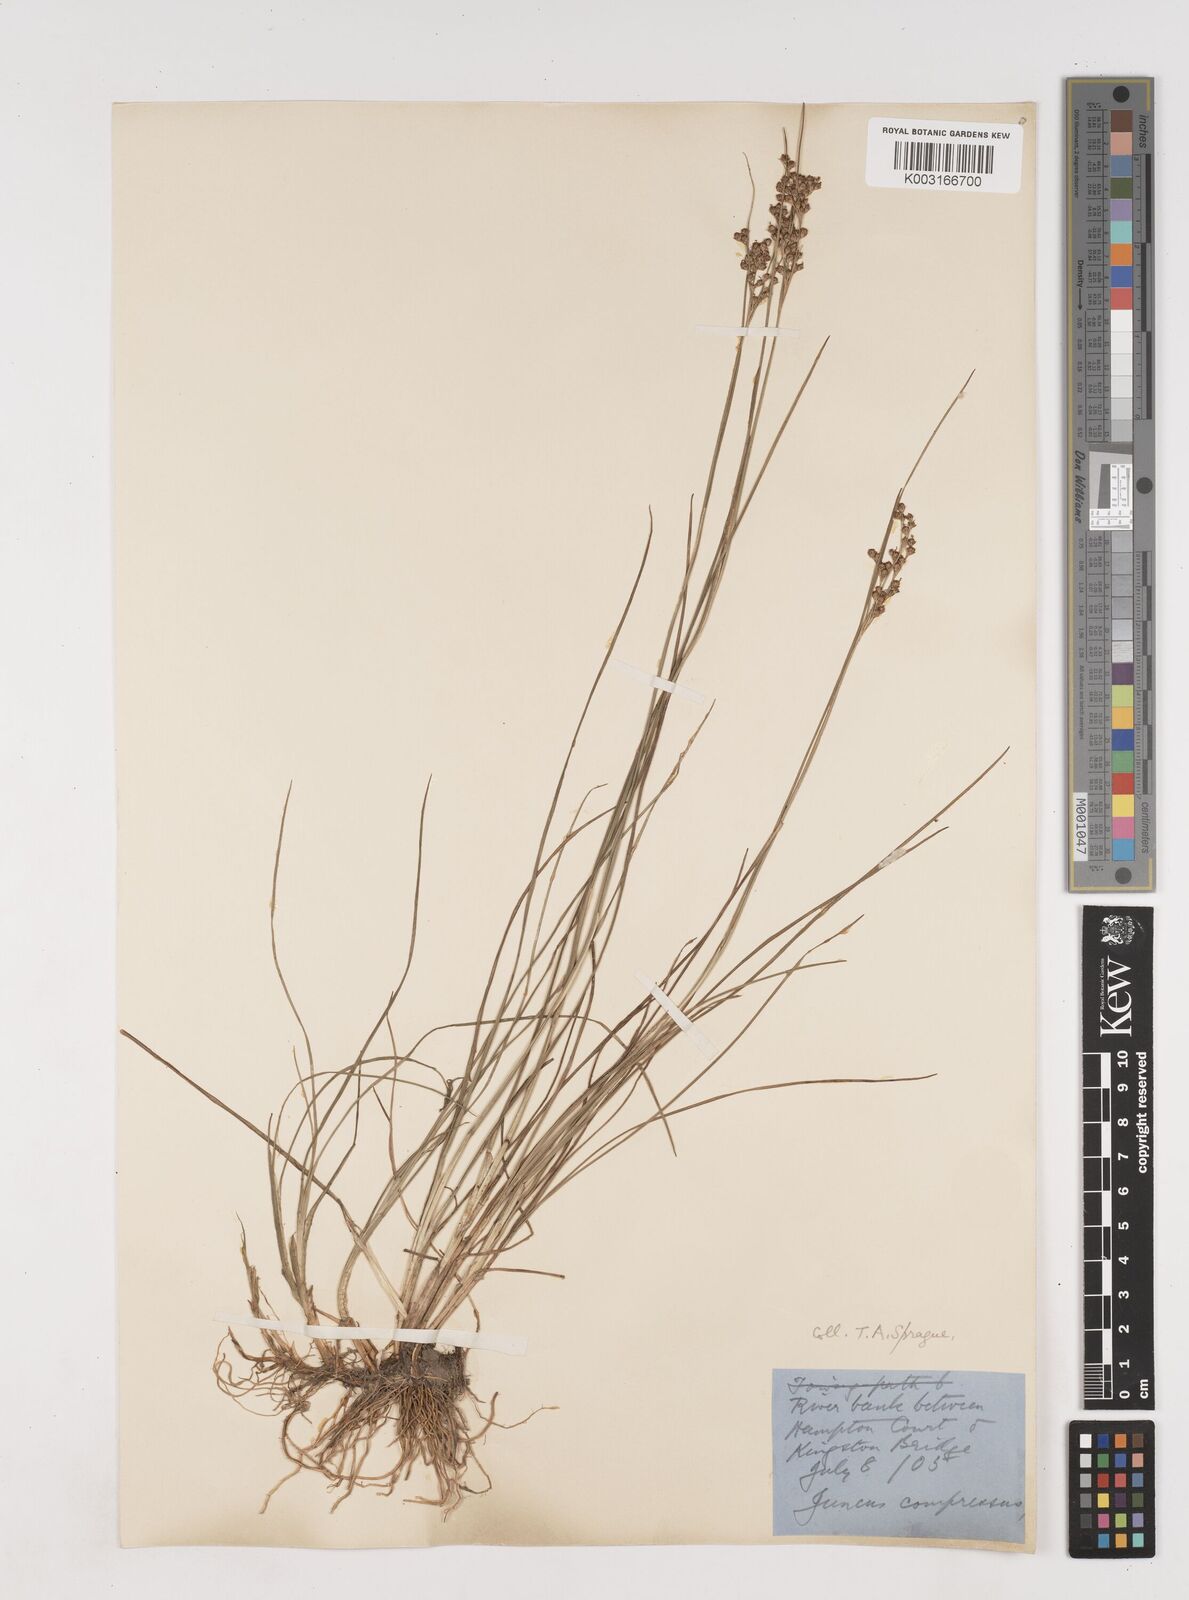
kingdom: Plantae
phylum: Tracheophyta
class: Liliopsida
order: Poales
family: Juncaceae
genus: Juncus
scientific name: Juncus compressus
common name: Round-fruited rush
